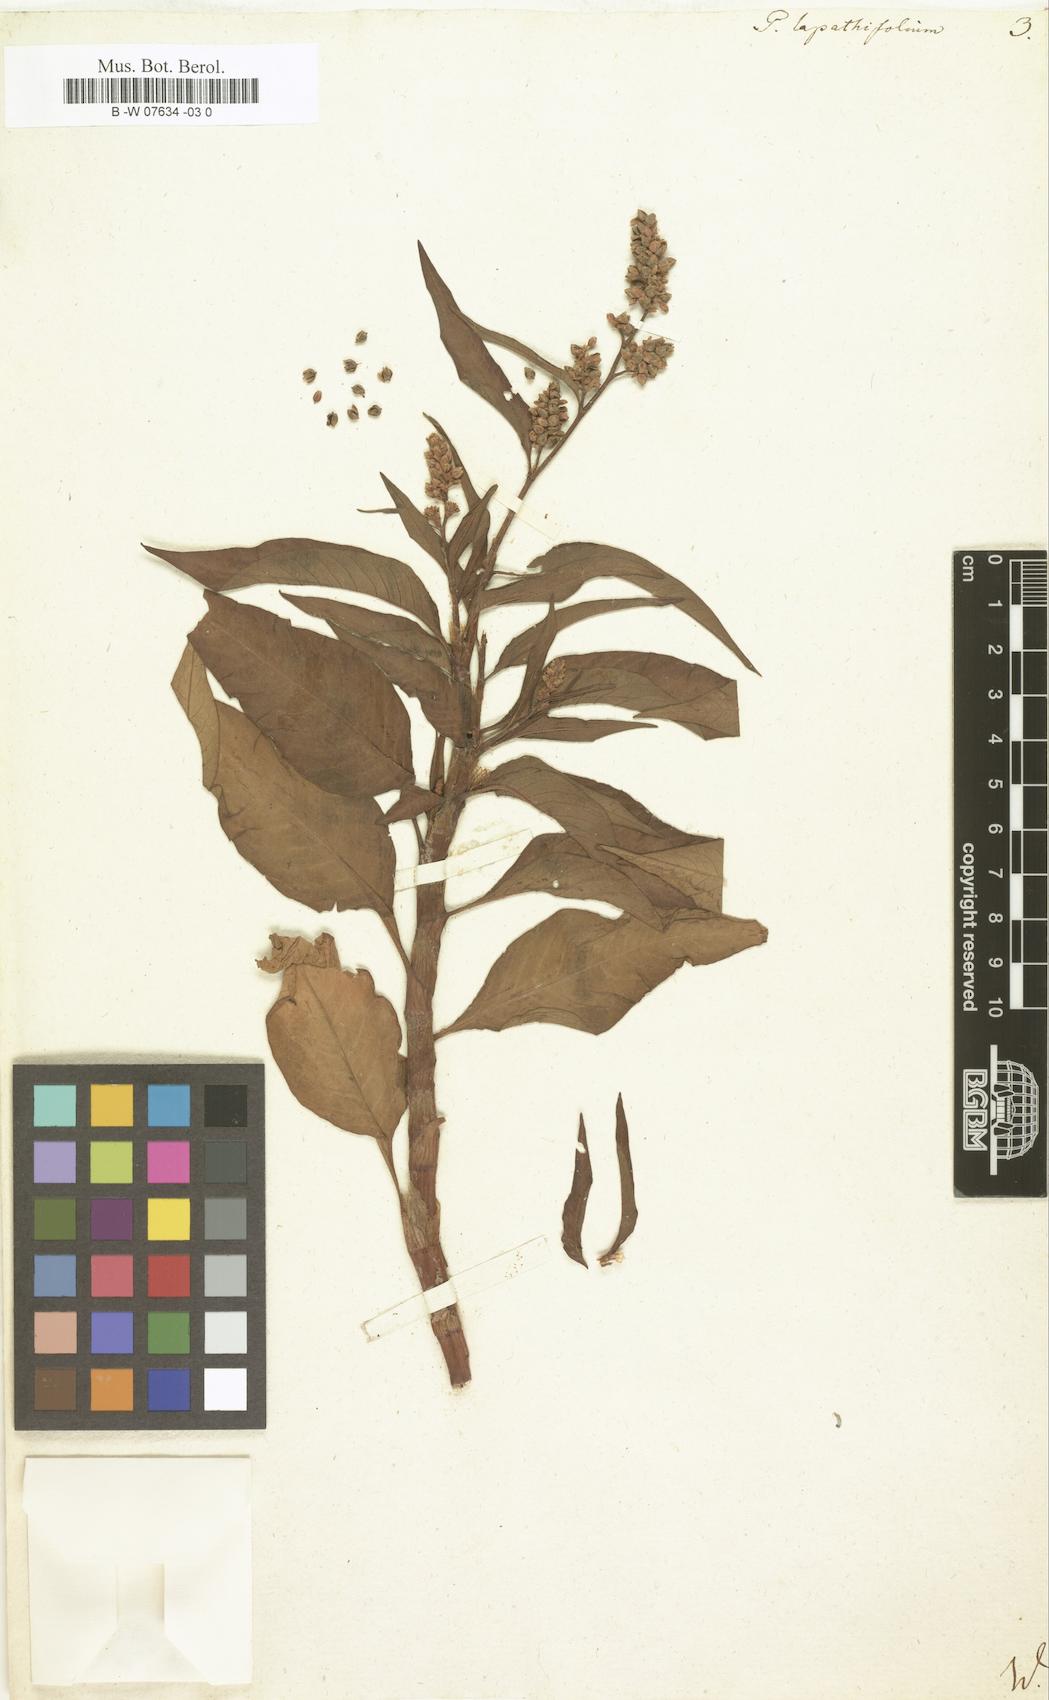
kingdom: Plantae
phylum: Tracheophyta
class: Magnoliopsida
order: Caryophyllales
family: Polygonaceae
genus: Persicaria
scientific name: Persicaria
